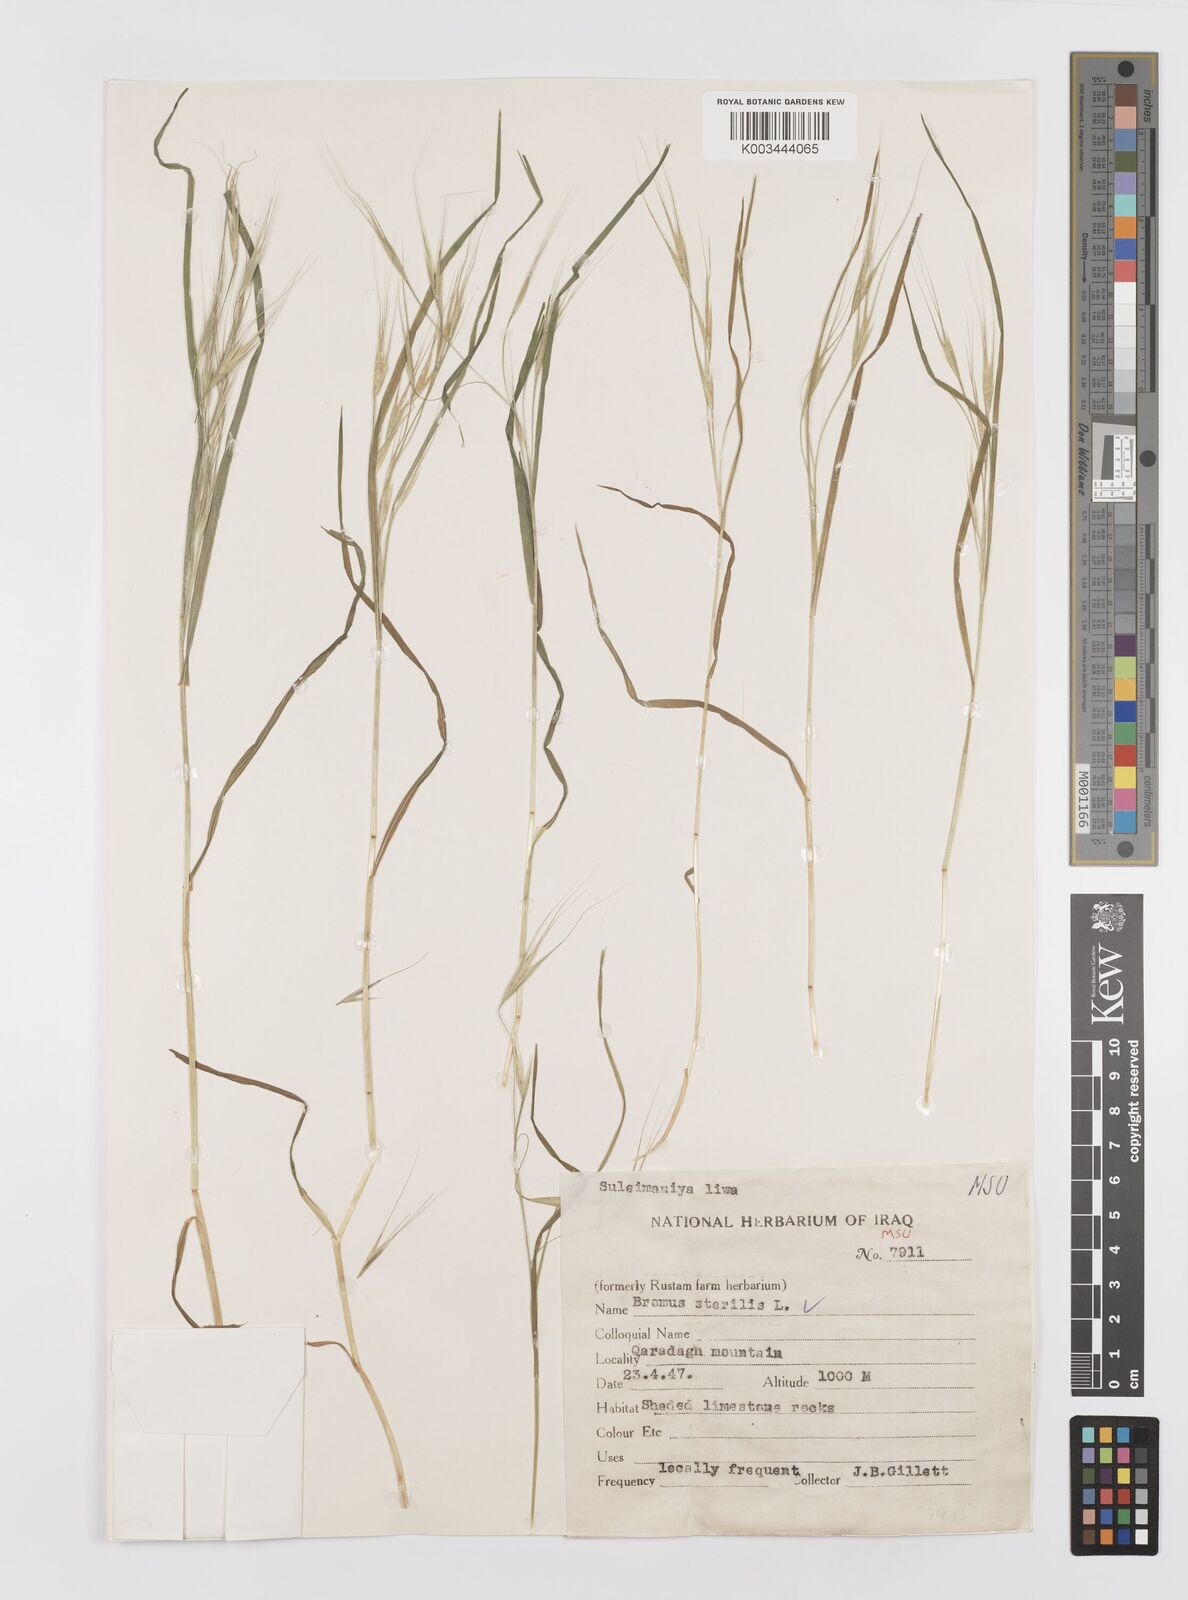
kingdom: Plantae
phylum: Tracheophyta
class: Liliopsida
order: Poales
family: Poaceae
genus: Bromus
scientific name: Bromus sterilis
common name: Poverty brome
